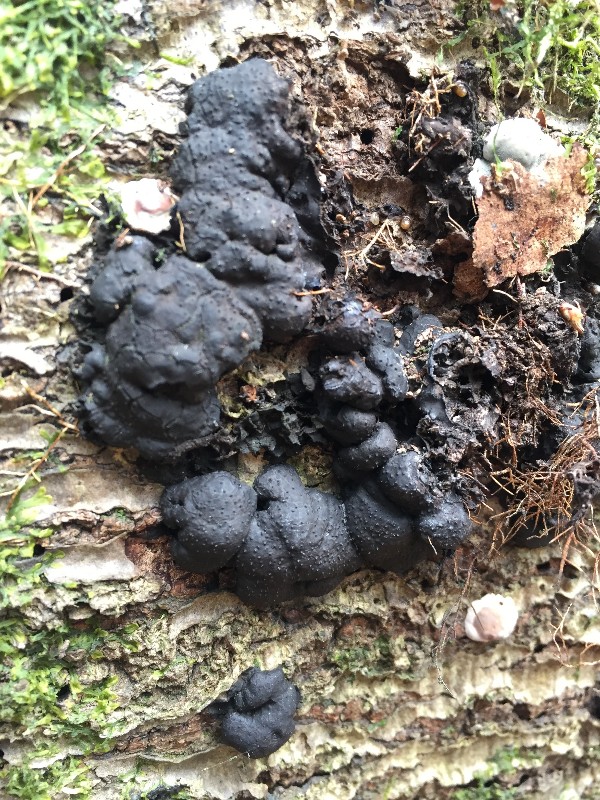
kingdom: Fungi
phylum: Ascomycota
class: Sordariomycetes
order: Xylariales
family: Xylariaceae
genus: Kretzschmaria
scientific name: Kretzschmaria deusta
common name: stor kulsvamp
